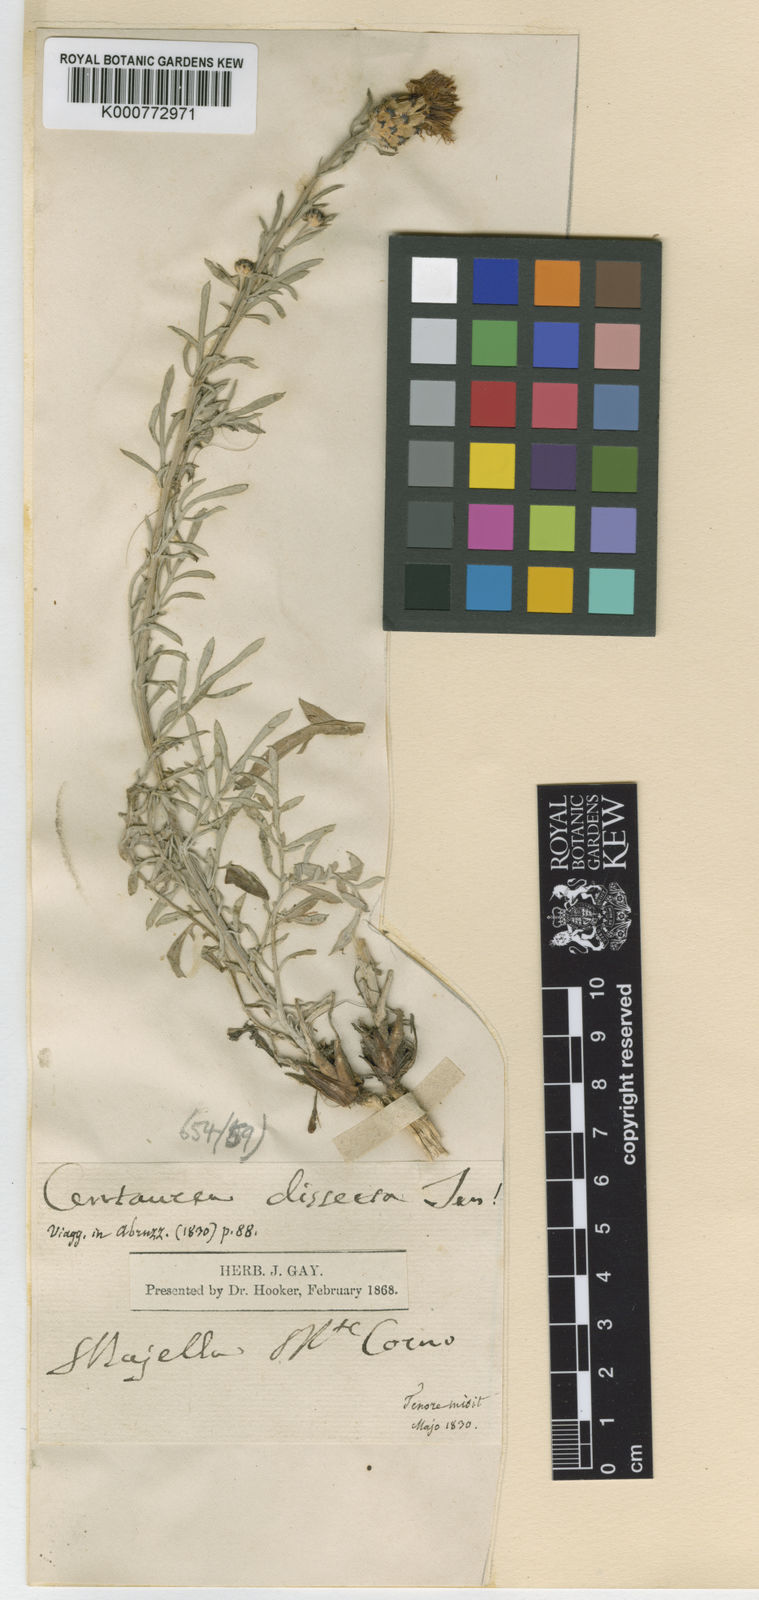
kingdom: Plantae
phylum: Tracheophyta
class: Magnoliopsida
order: Asterales
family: Asteraceae
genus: Centaurea
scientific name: Centaurea parlatoris
